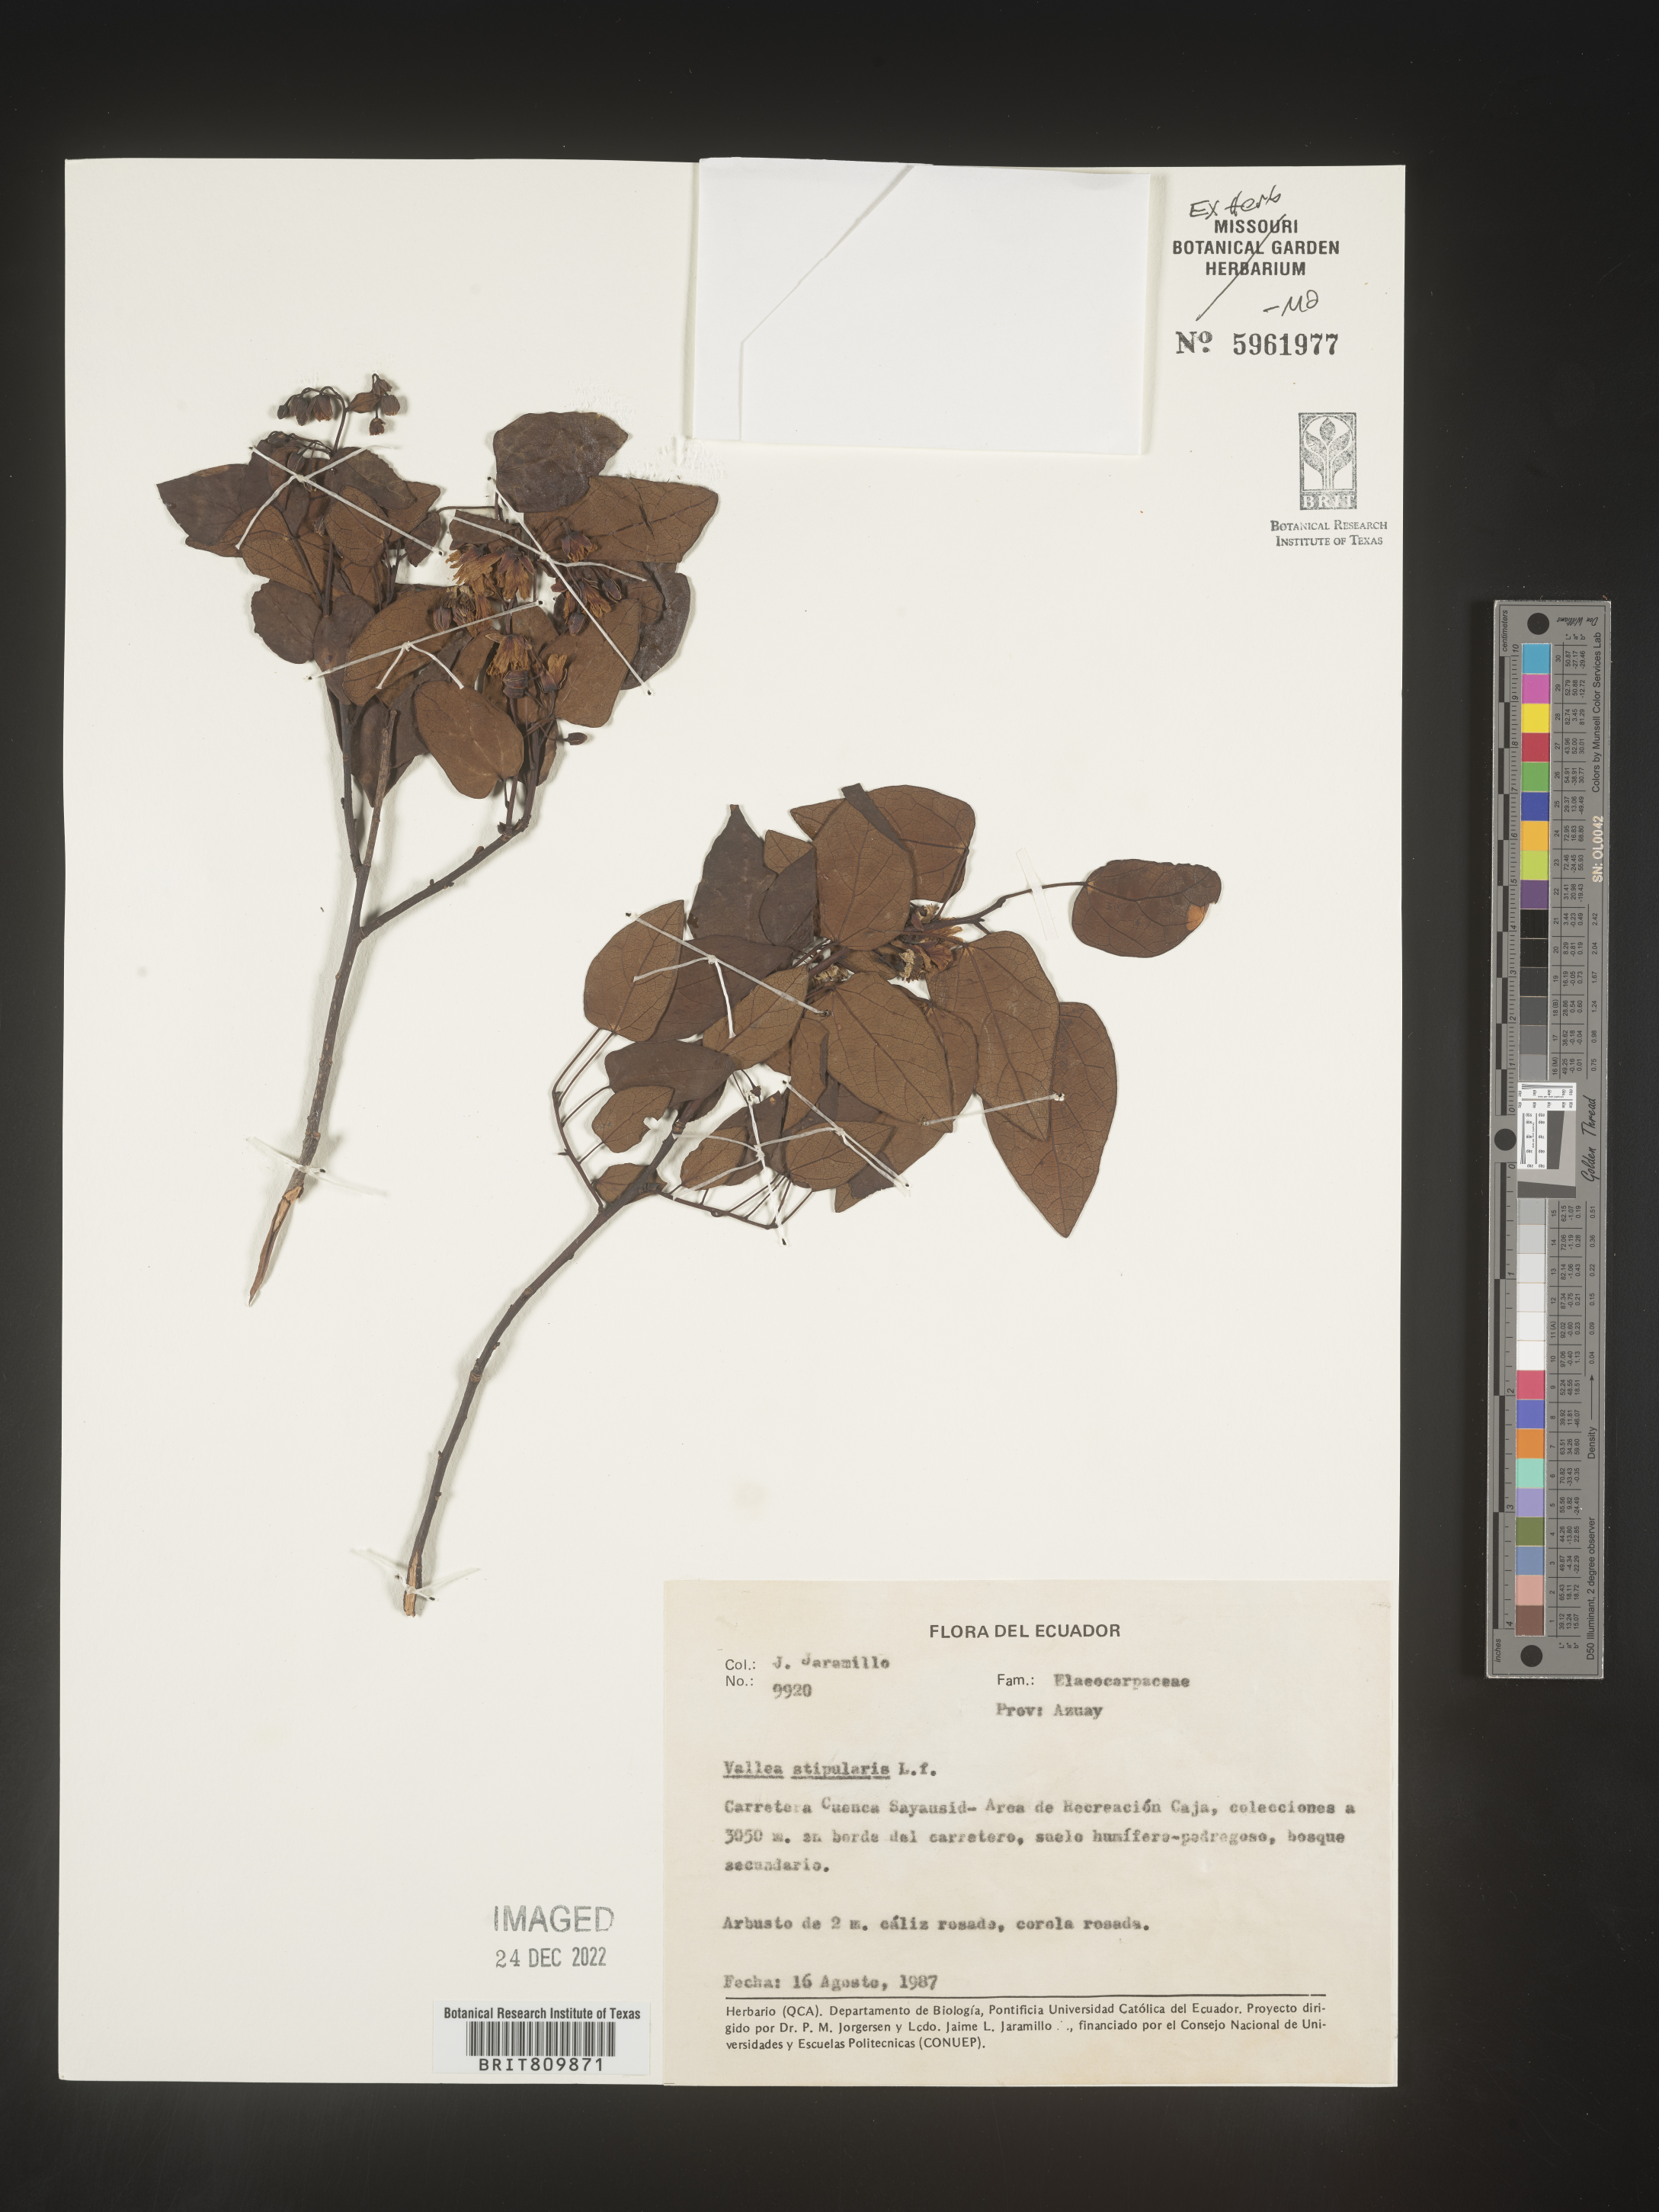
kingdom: Plantae
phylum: Tracheophyta
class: Magnoliopsida
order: Oxalidales
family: Elaeocarpaceae
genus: Vallea
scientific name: Vallea
